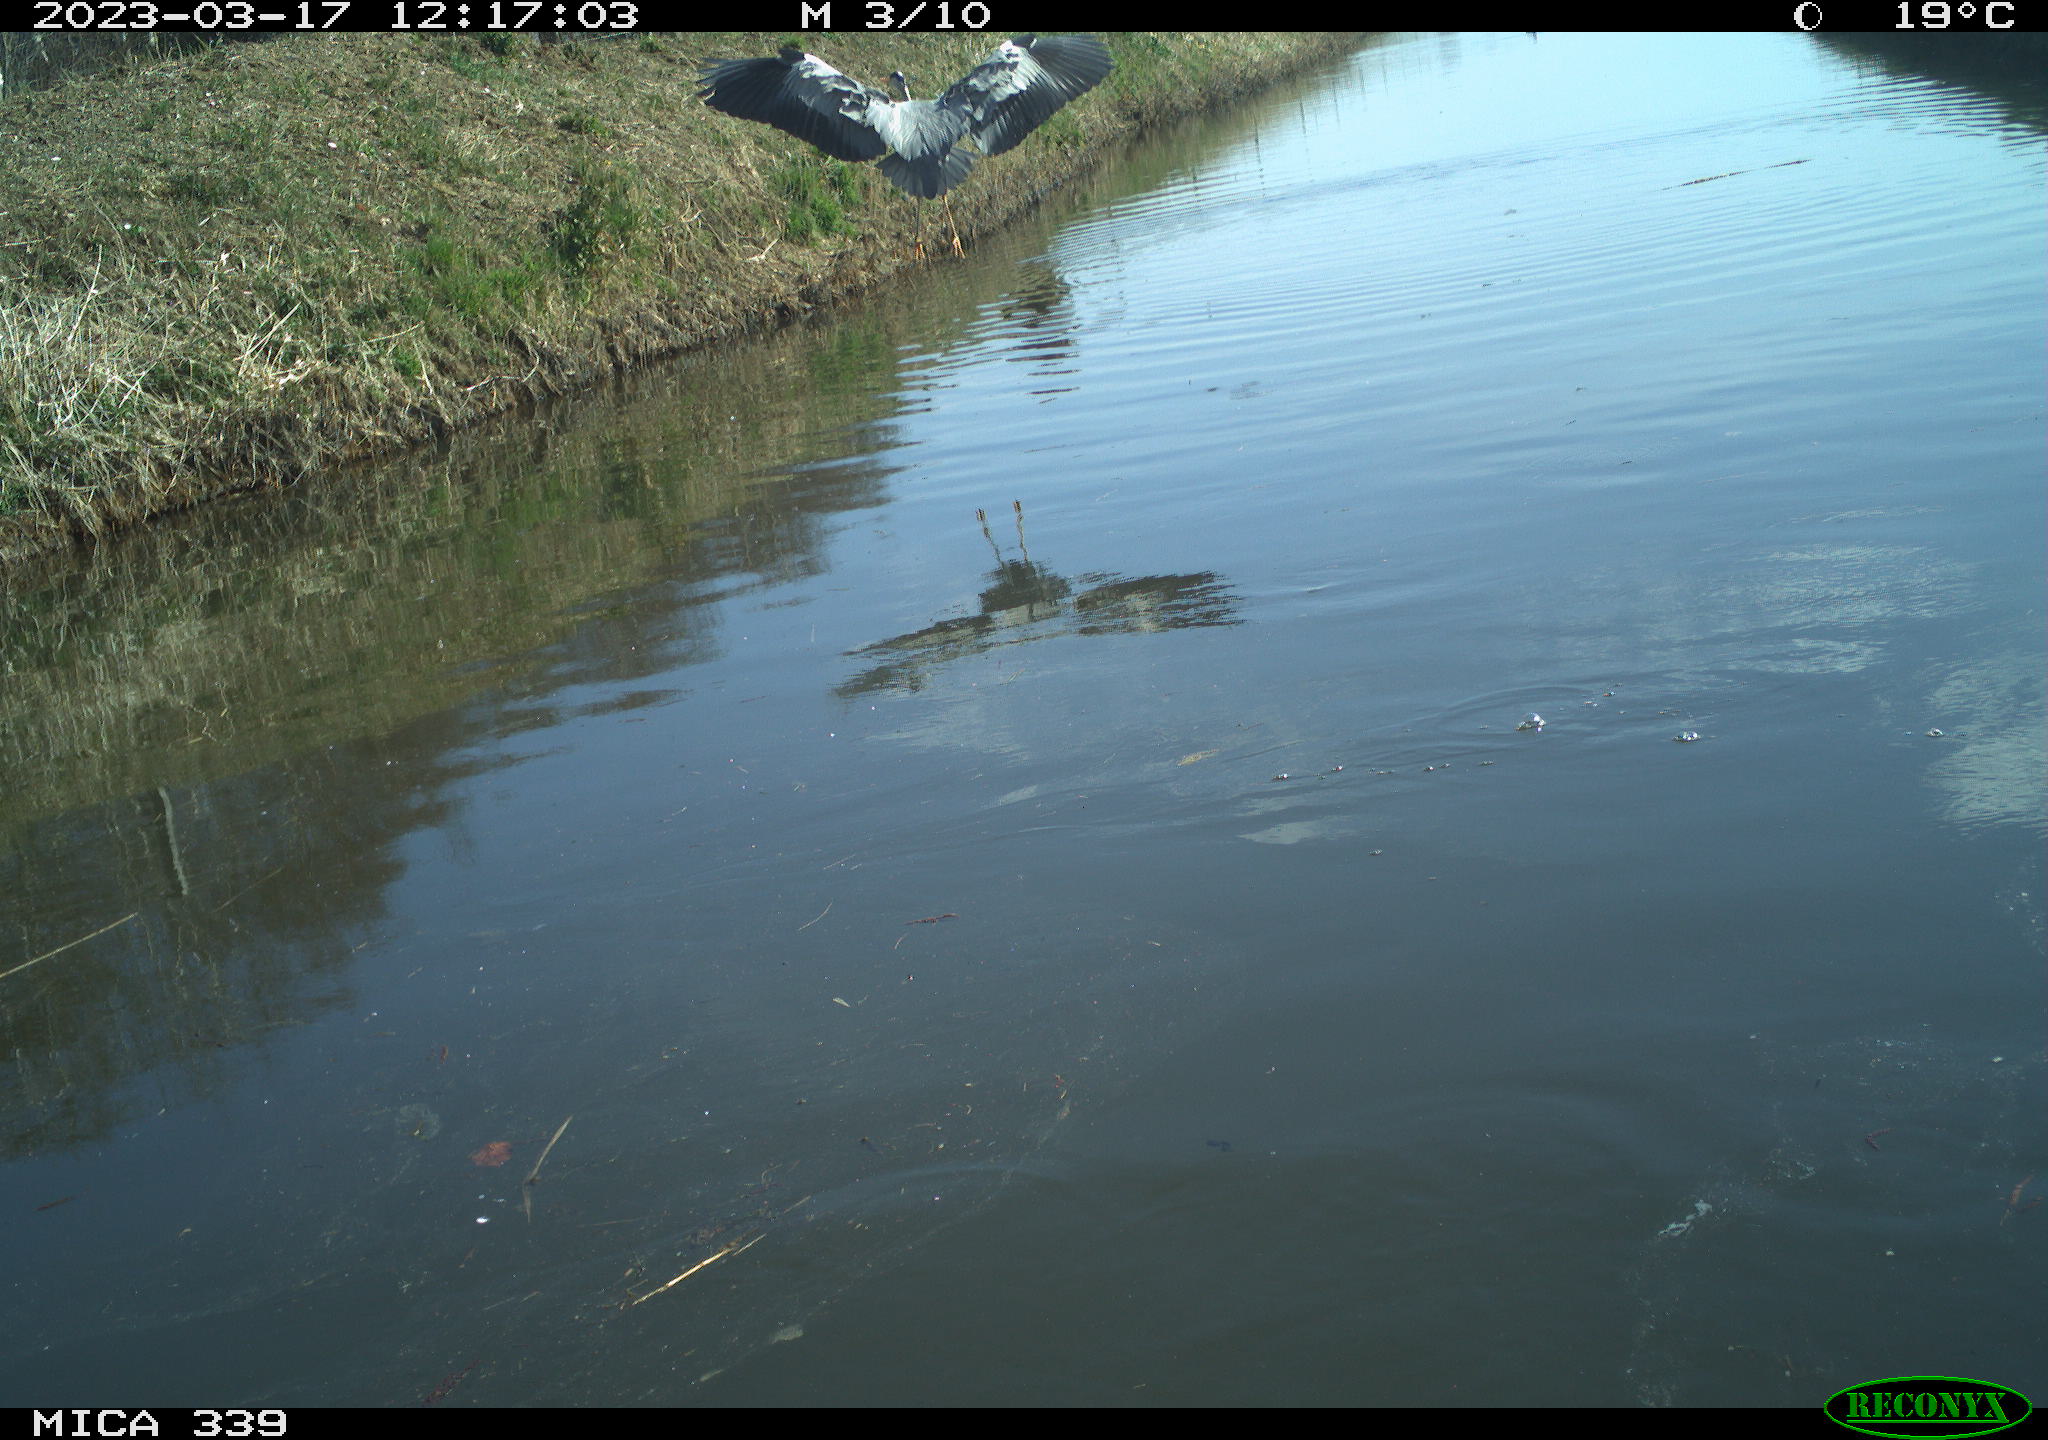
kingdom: Animalia
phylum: Chordata
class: Aves
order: Pelecaniformes
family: Ardeidae
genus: Ardea
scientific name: Ardea
